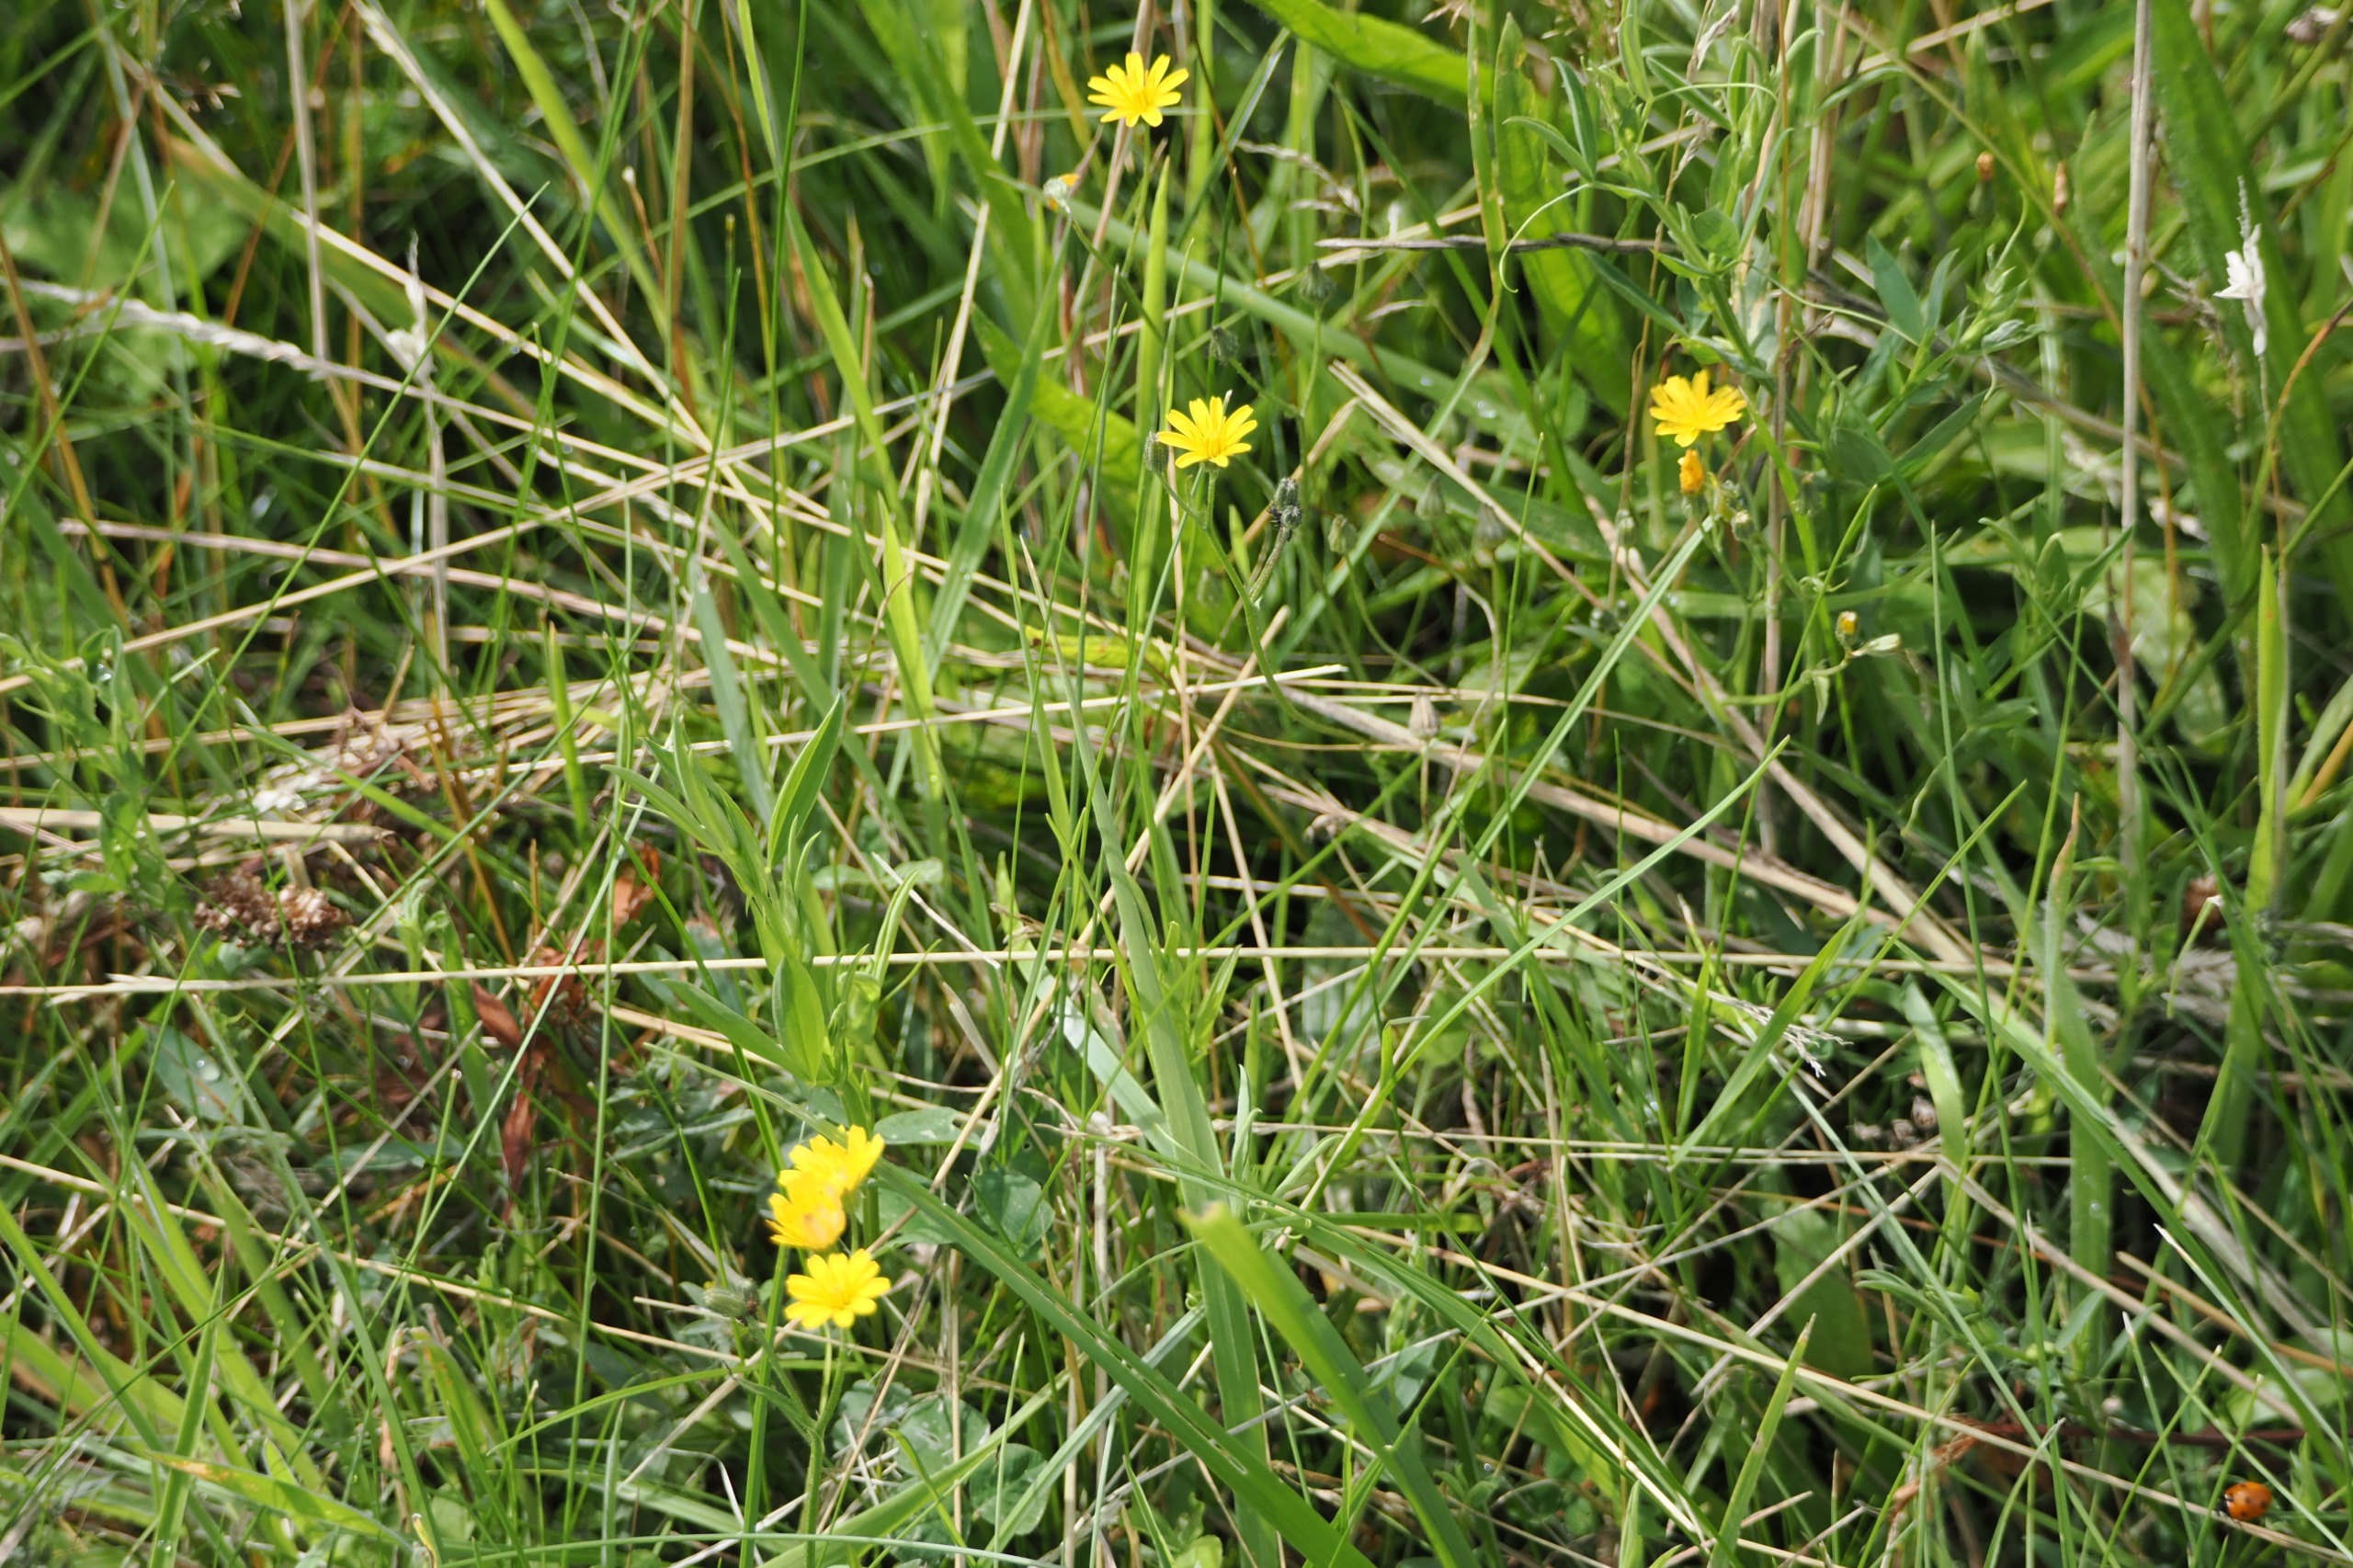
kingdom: Plantae
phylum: Tracheophyta
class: Magnoliopsida
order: Asterales
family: Asteraceae
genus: Crepis
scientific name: Crepis capillaris
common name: Grøn høgeskæg
